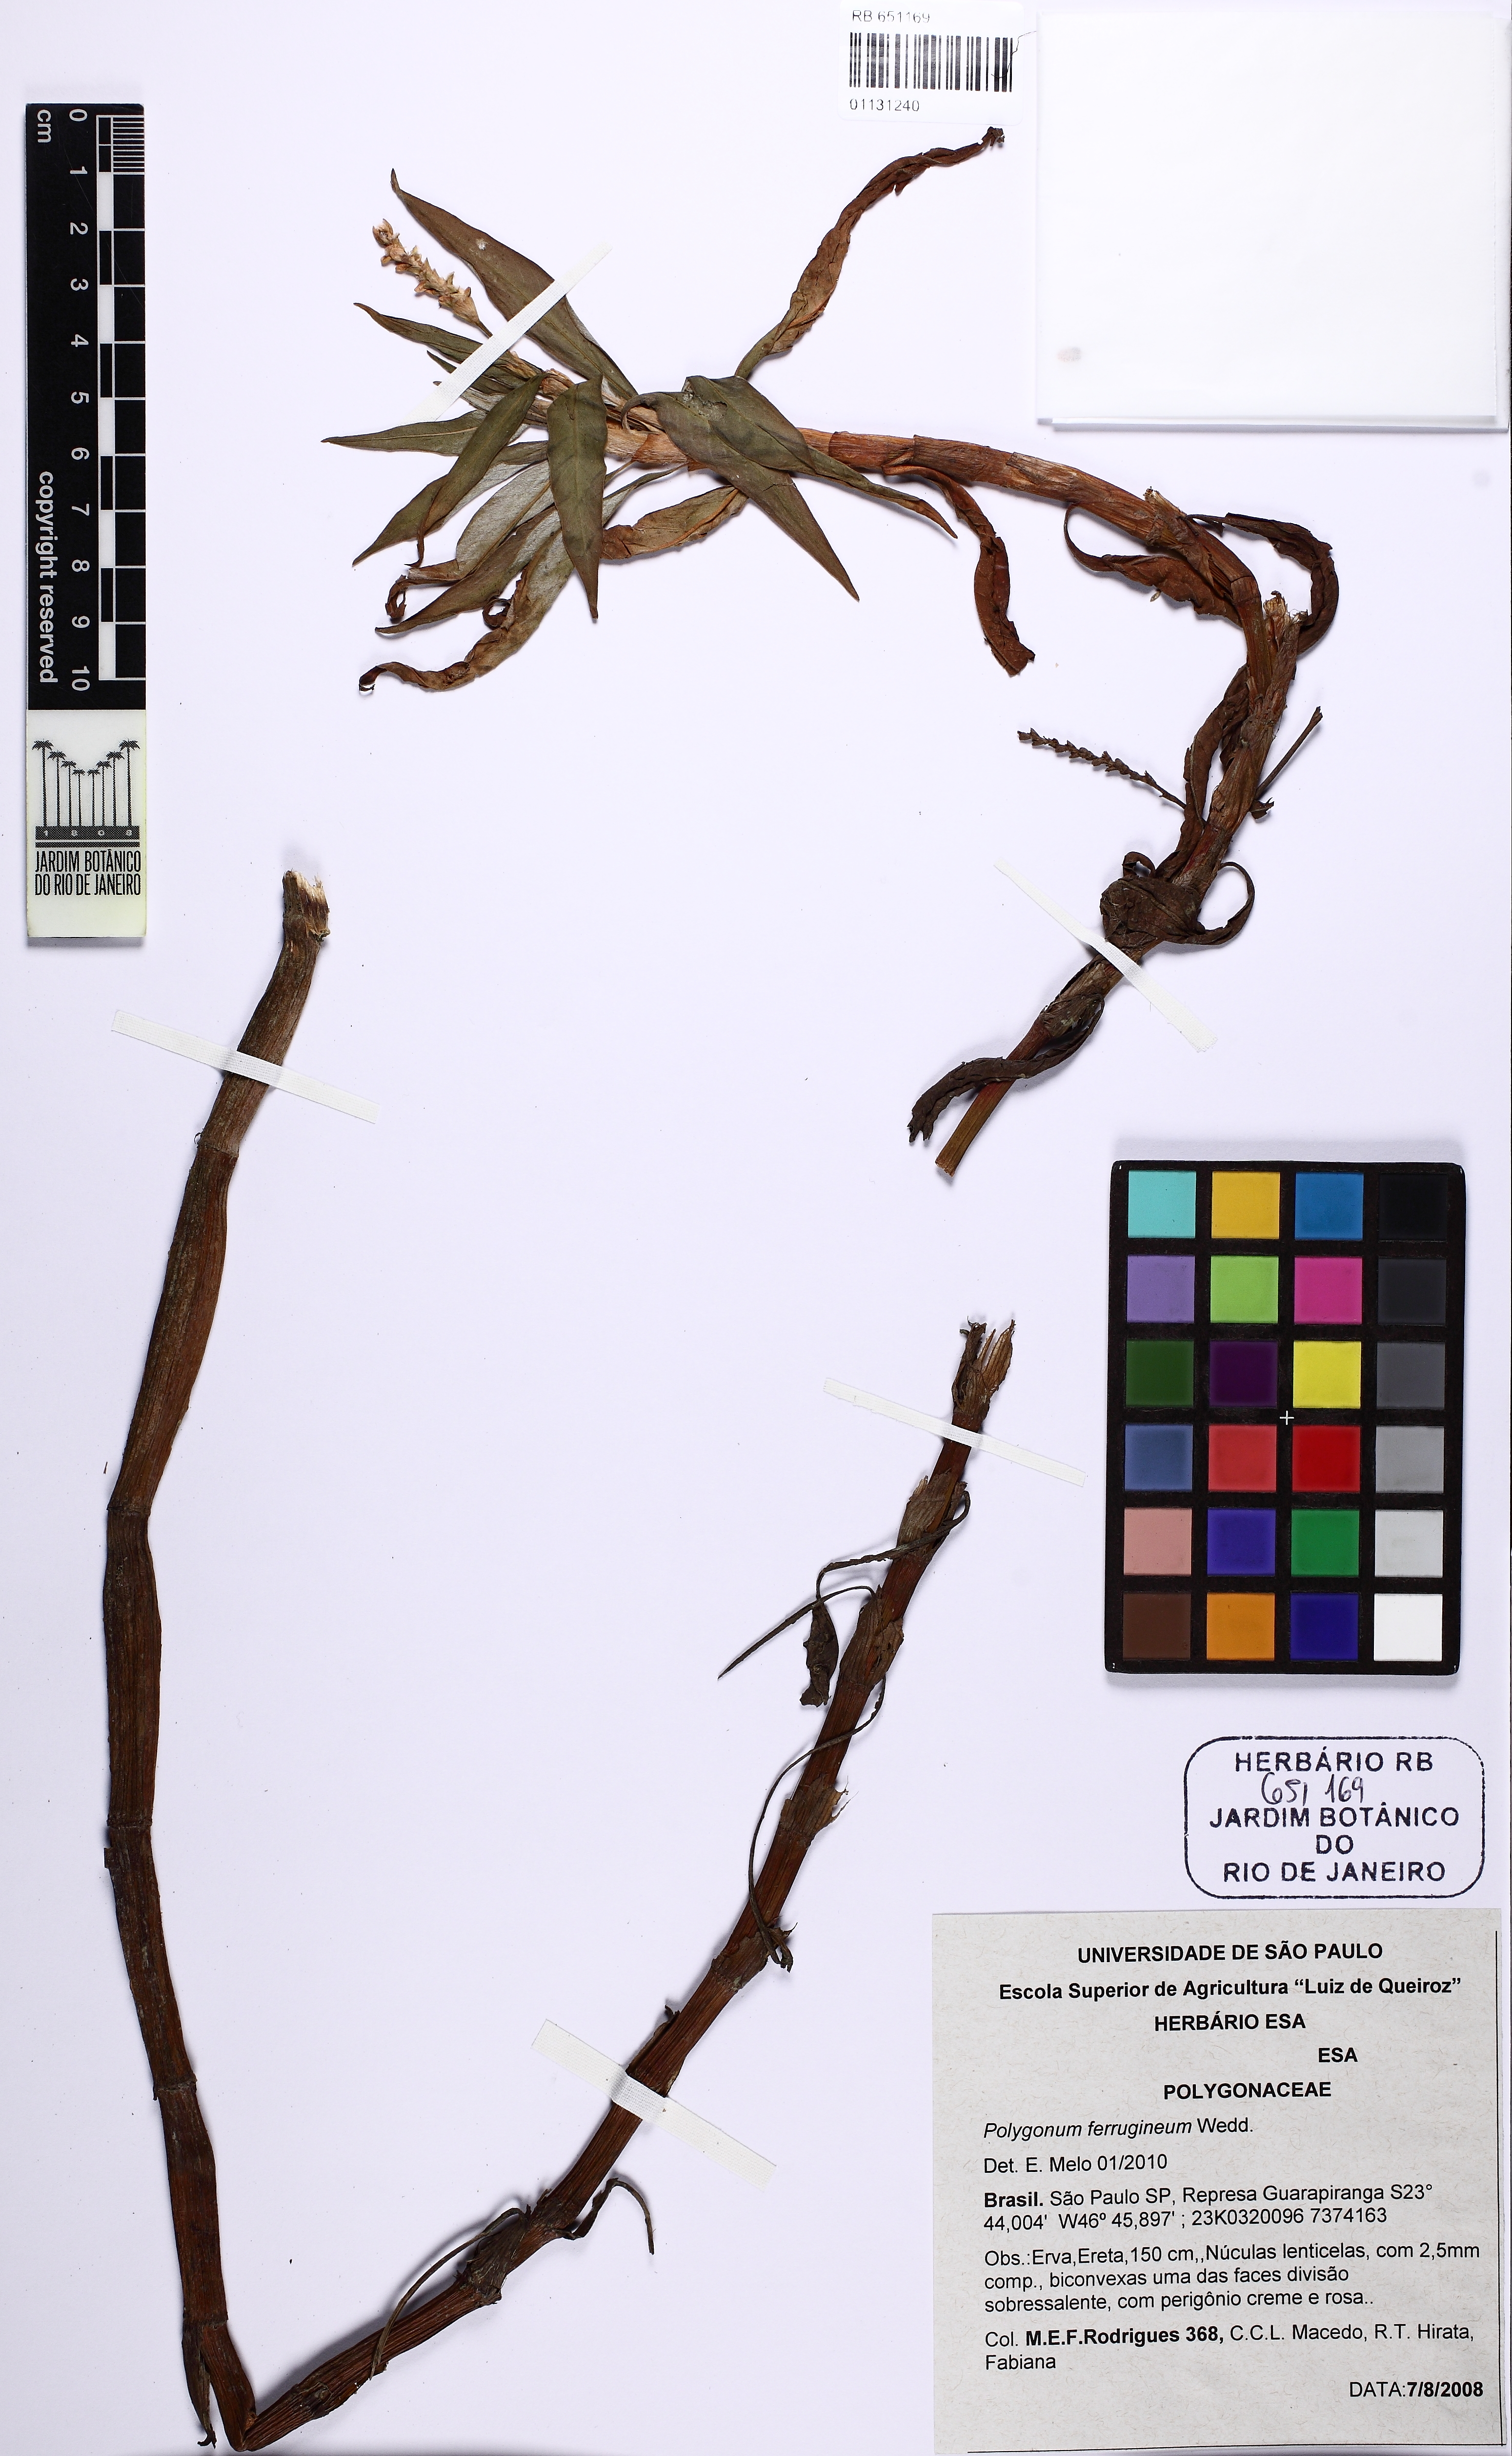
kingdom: Plantae
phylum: Tracheophyta
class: Magnoliopsida
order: Caryophyllales
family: Polygonaceae
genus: Persicaria
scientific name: Persicaria ferruginea
